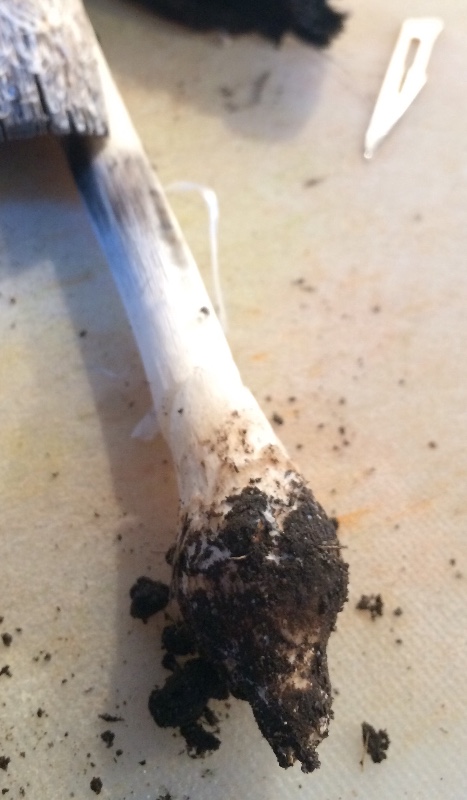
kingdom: Fungi
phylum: Basidiomycota
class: Agaricomycetes
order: Agaricales
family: Agaricaceae
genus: Coprinus
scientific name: Coprinus comatus
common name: stor parykhat
